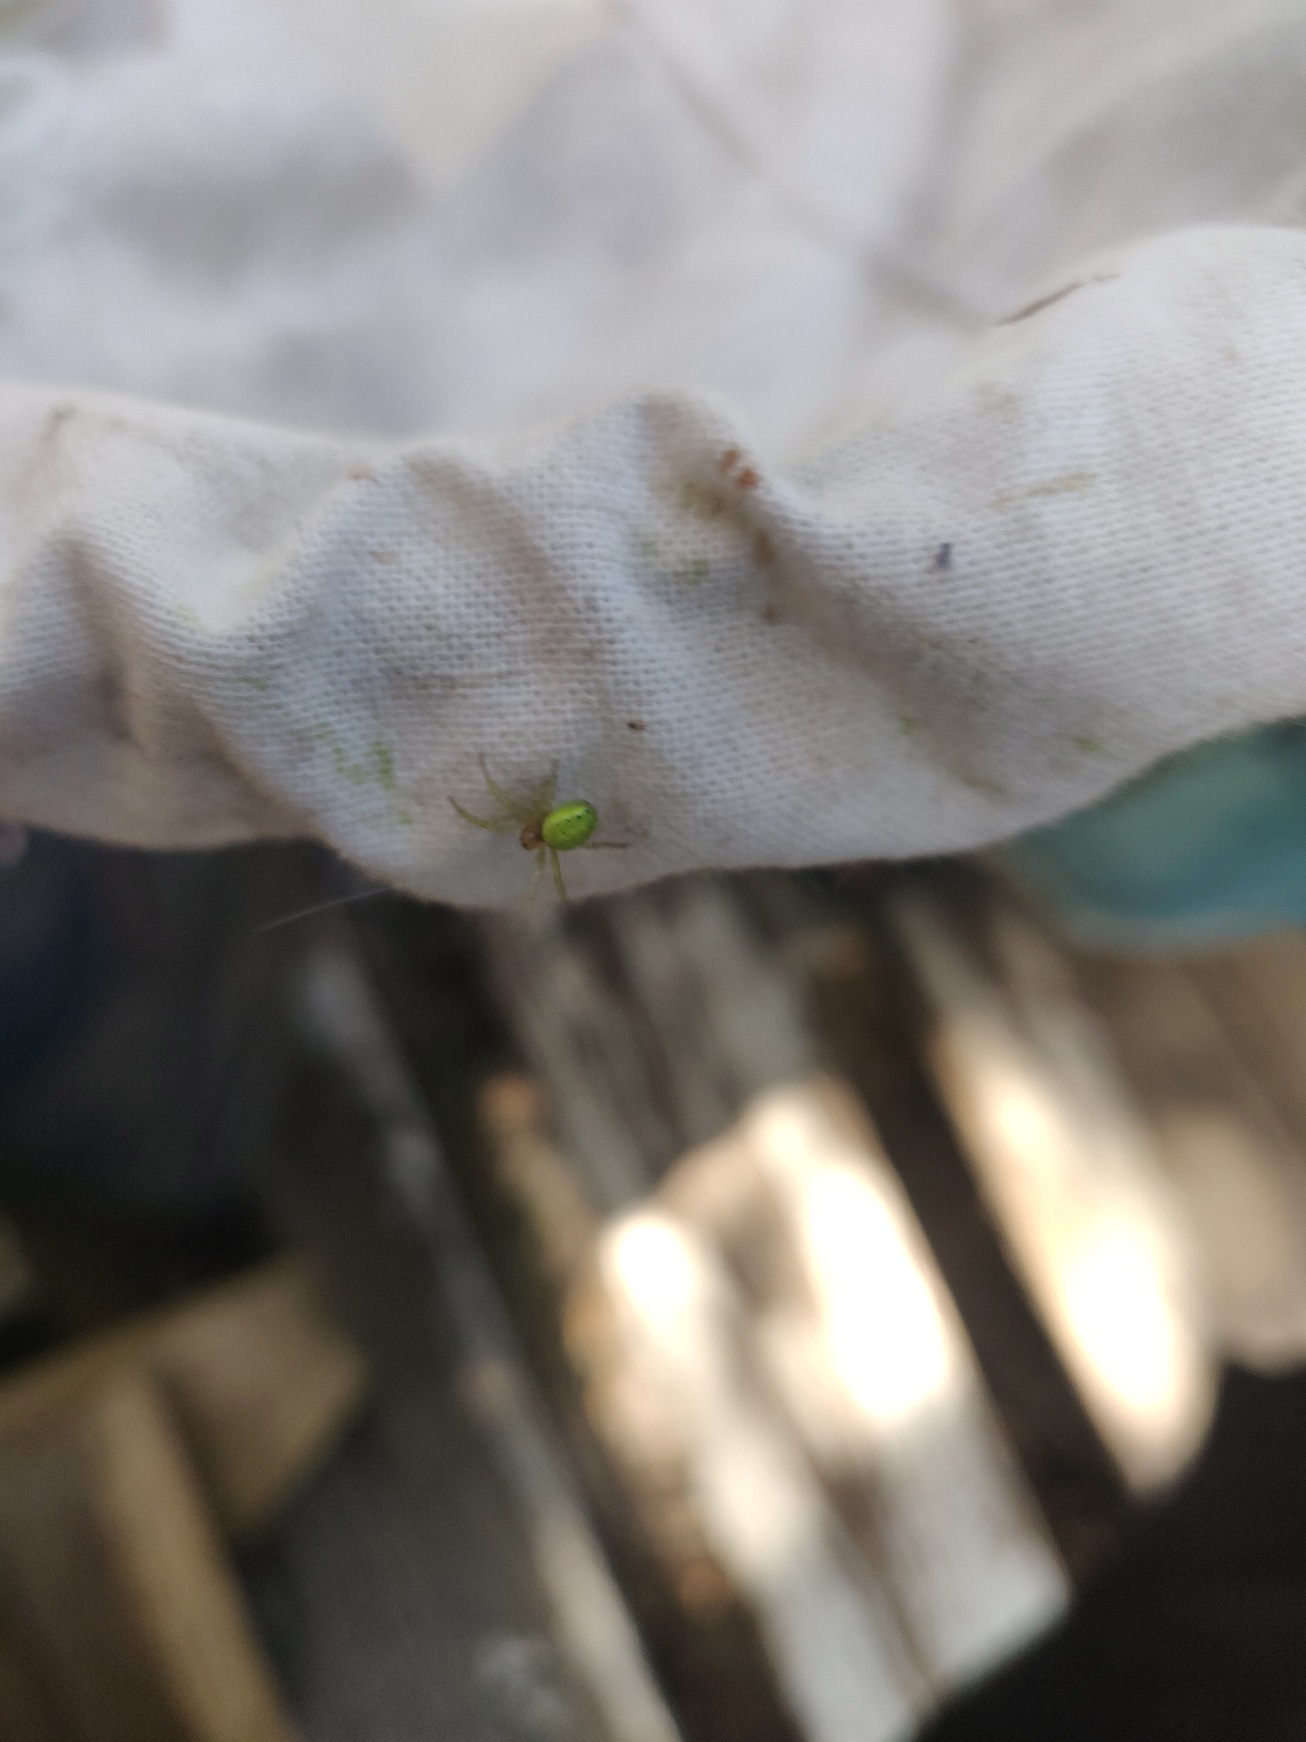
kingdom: Animalia
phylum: Arthropoda
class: Arachnida
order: Araneae
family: Araneidae
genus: Araniella
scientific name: Araniella
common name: Agurkeedderkopslægten
